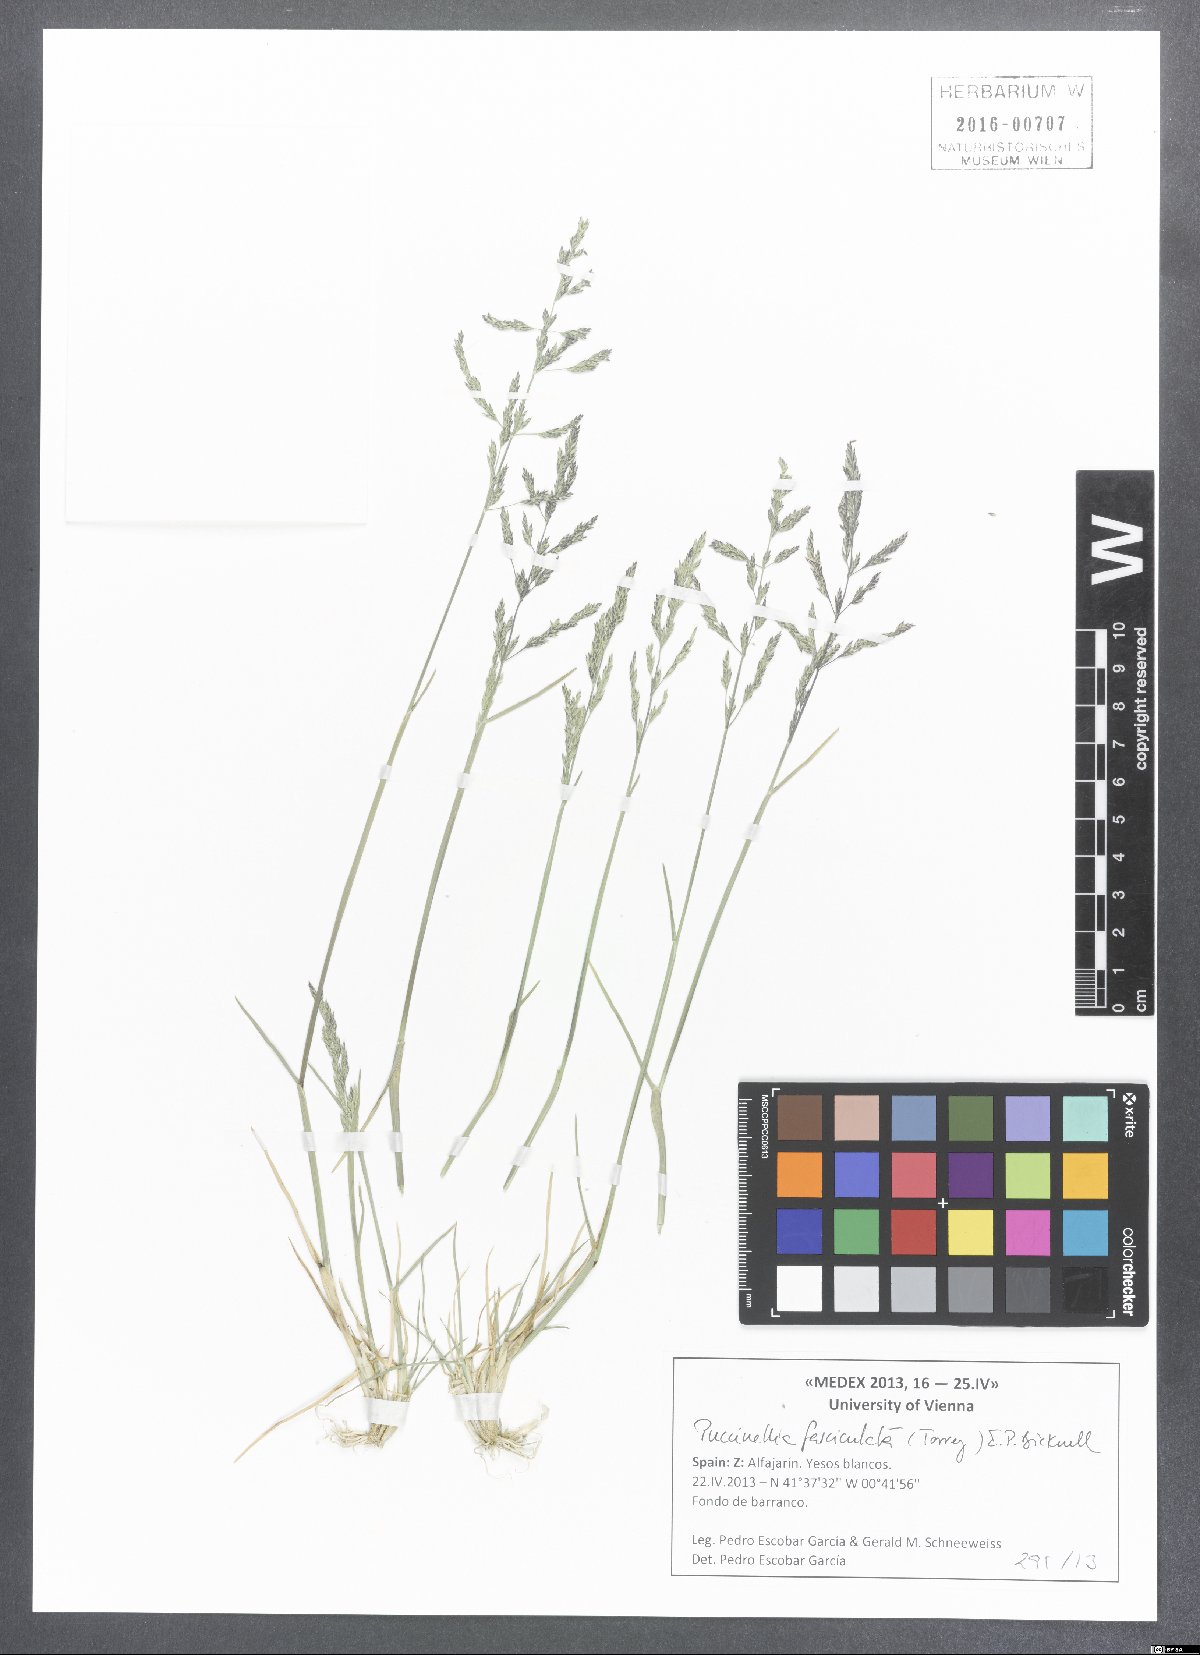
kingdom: Plantae
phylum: Tracheophyta
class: Liliopsida
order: Poales
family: Poaceae
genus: Puccinellia
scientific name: Puccinellia fasciculata
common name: Borrer's saltmarsh-grass
